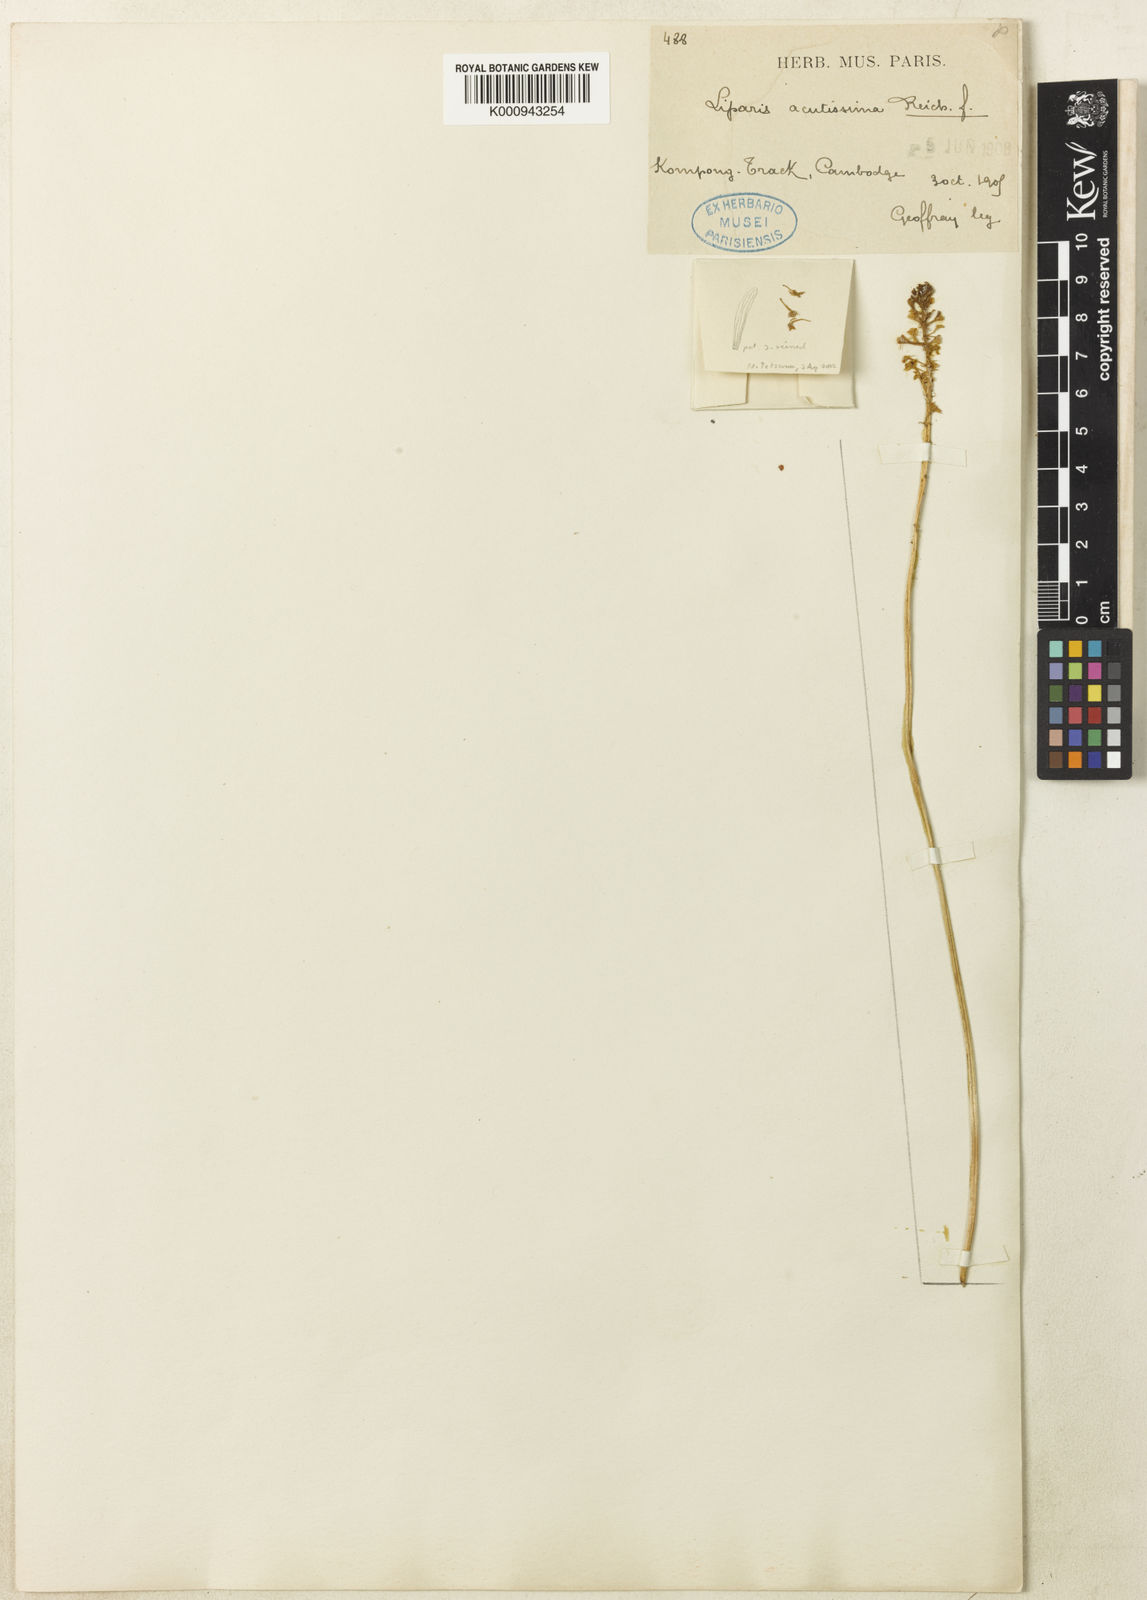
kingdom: Plantae
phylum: Tracheophyta
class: Liliopsida
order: Asparagales
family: Orchidaceae
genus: Liparis
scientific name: Liparis acutissima
